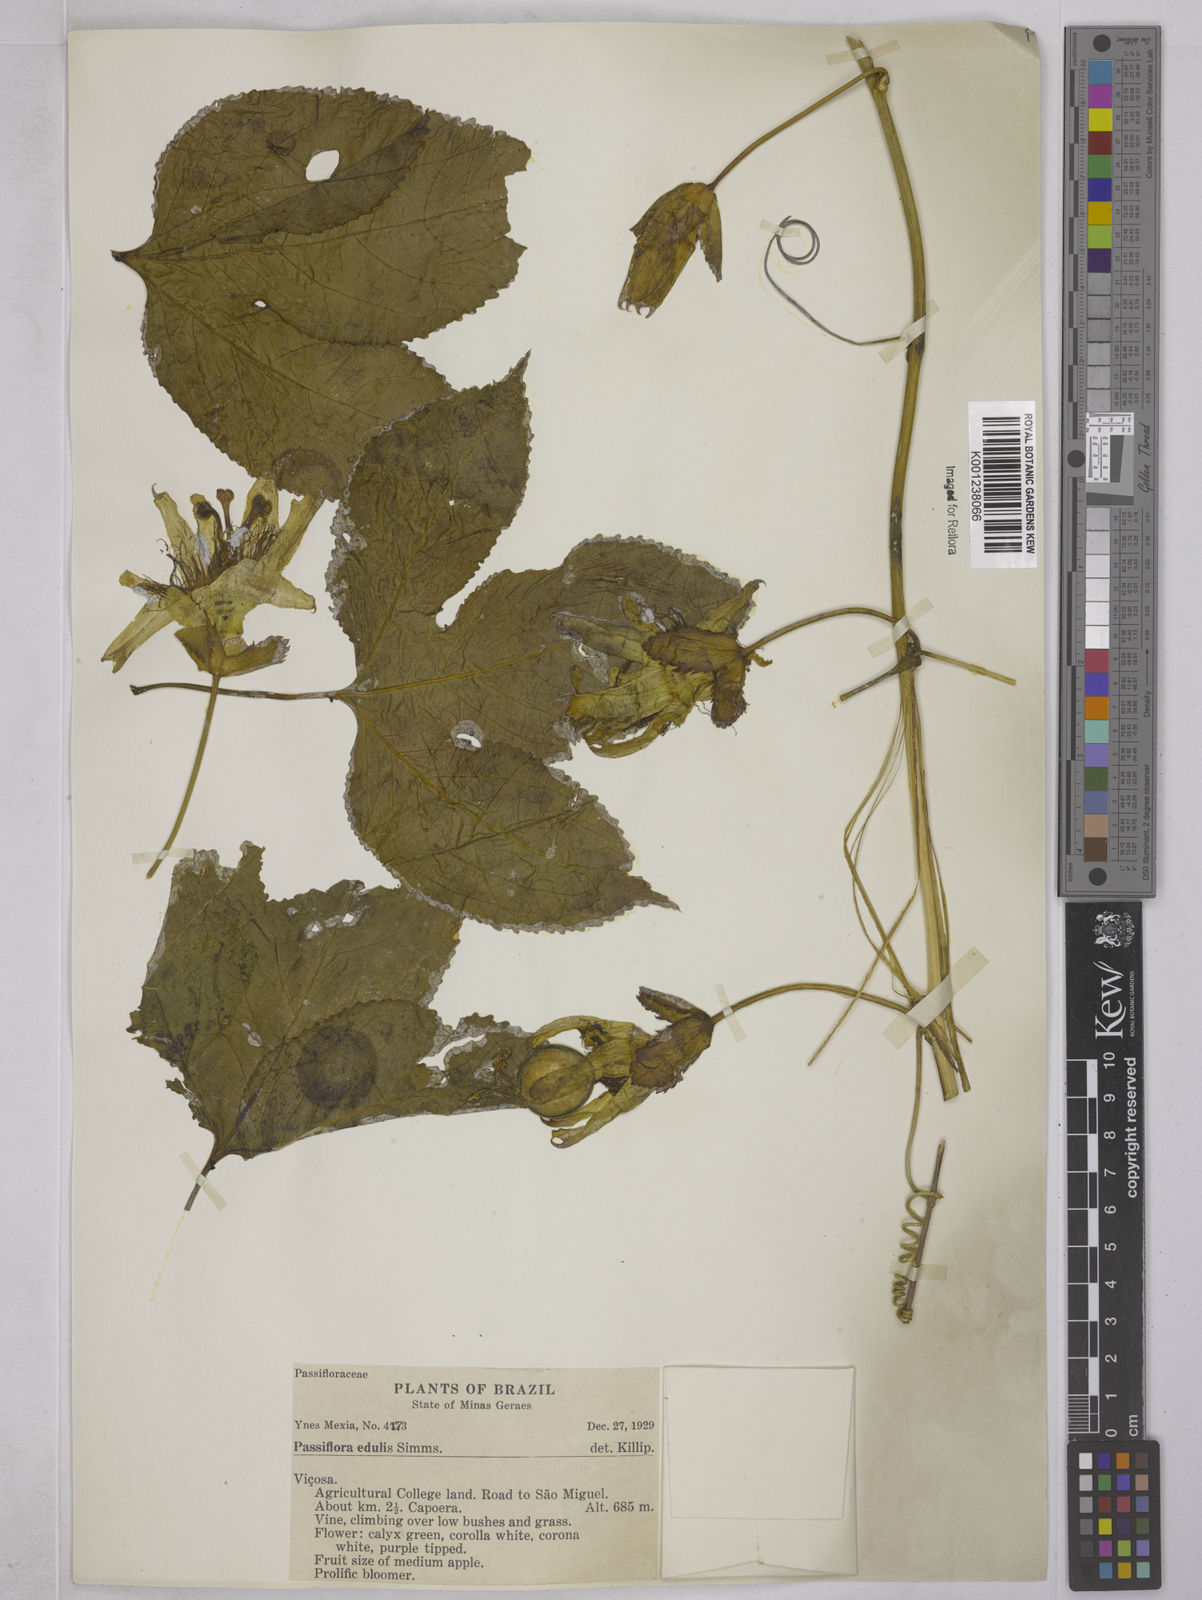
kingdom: Plantae
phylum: Tracheophyta
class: Magnoliopsida
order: Malpighiales
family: Passifloraceae
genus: Passiflora
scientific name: Passiflora edulis
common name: Purple granadilla
